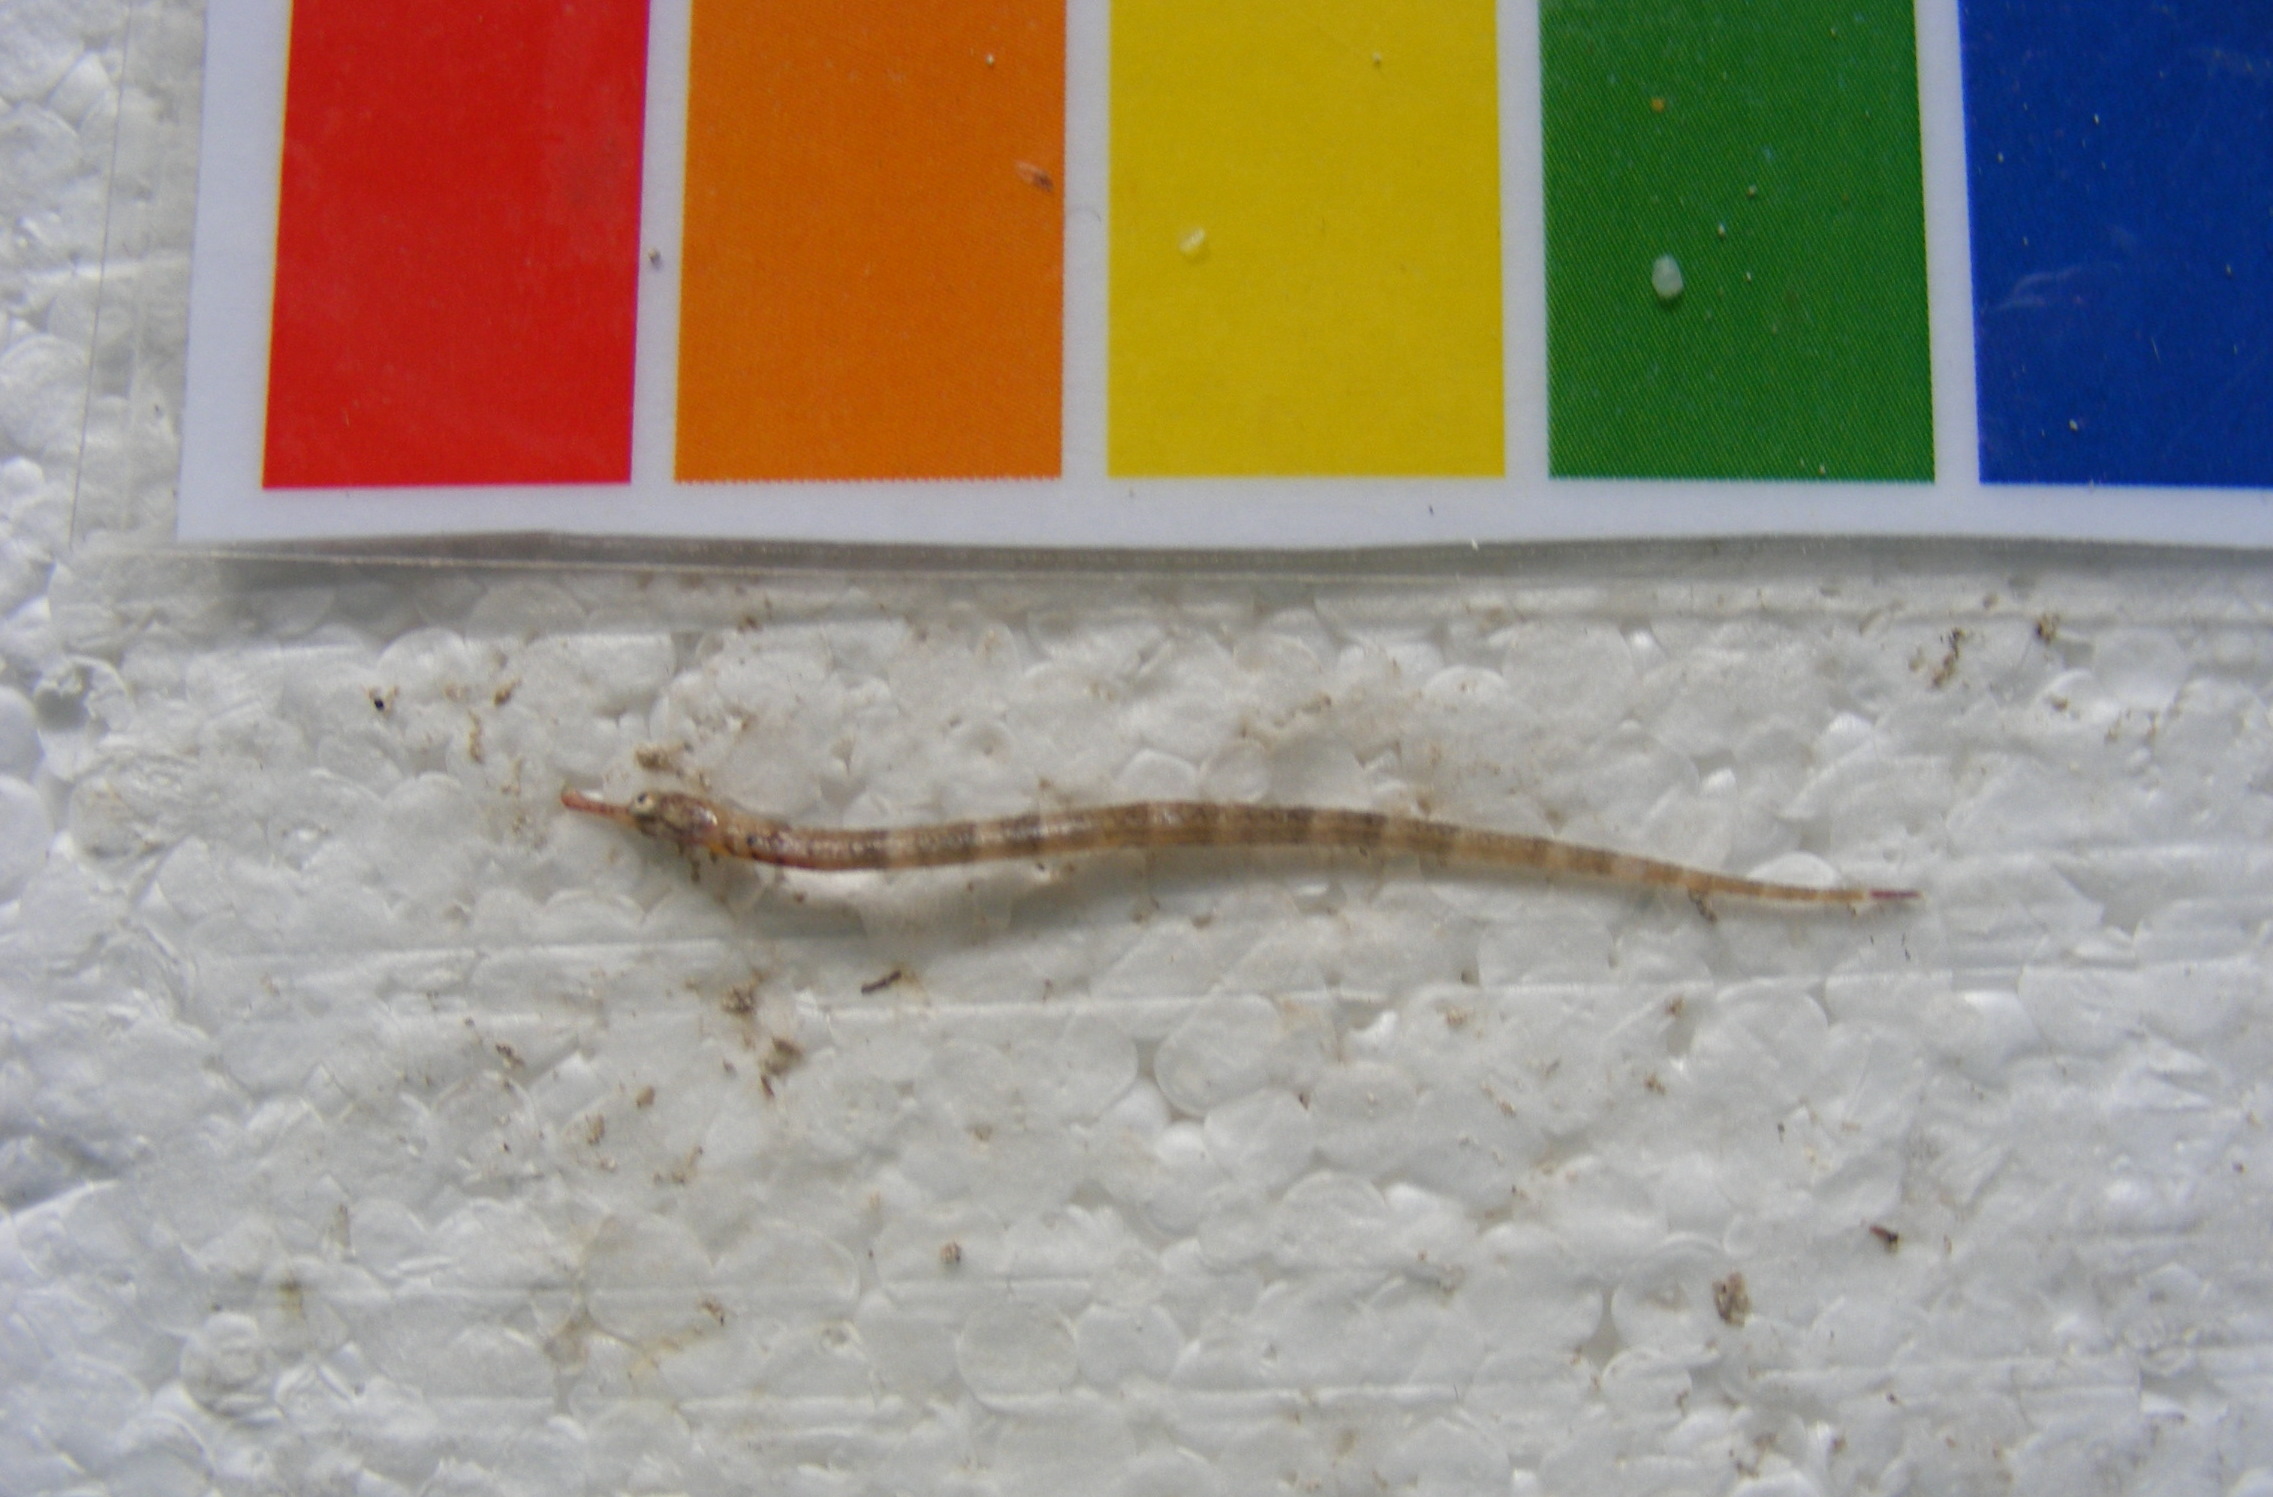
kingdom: Animalia
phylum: Chordata
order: Syngnathiformes
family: Syngnathidae
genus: Hippichthys
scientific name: Hippichthys heptagonus
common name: Belly pipefish
